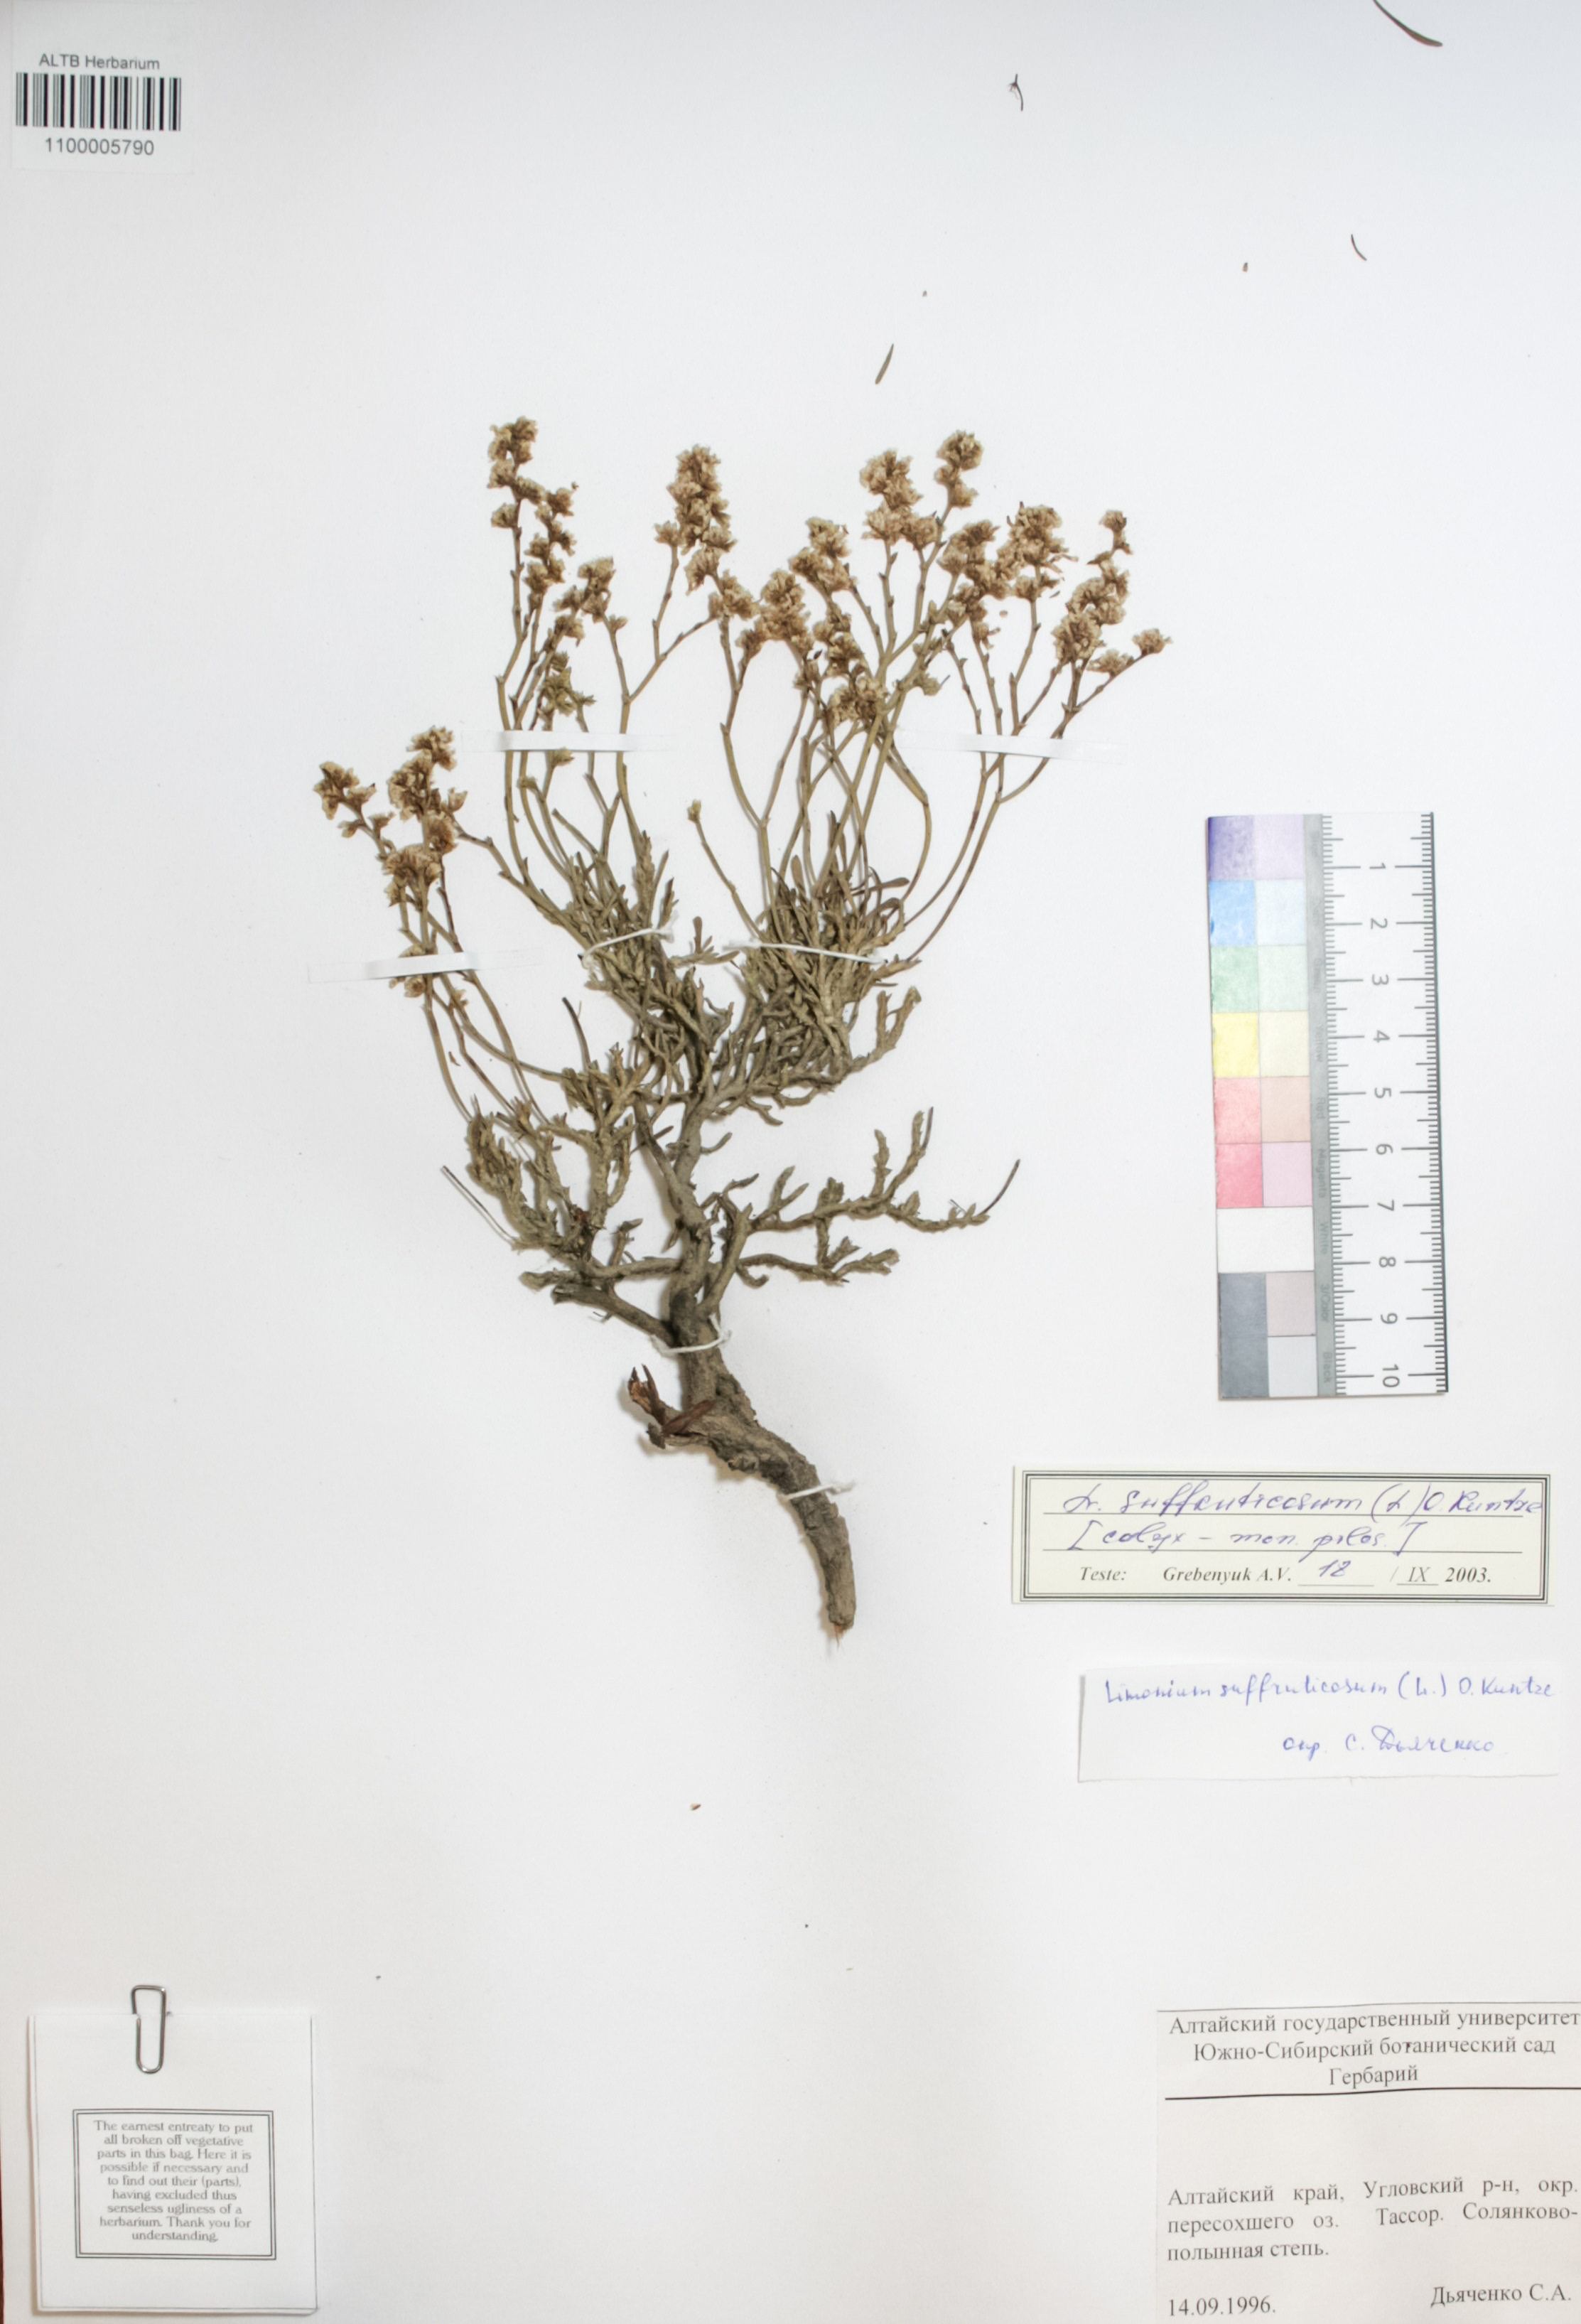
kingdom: Plantae
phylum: Tracheophyta
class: Magnoliopsida
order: Caryophyllales
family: Plumbaginaceae
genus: Limonium
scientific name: Limonium suffruticosum
